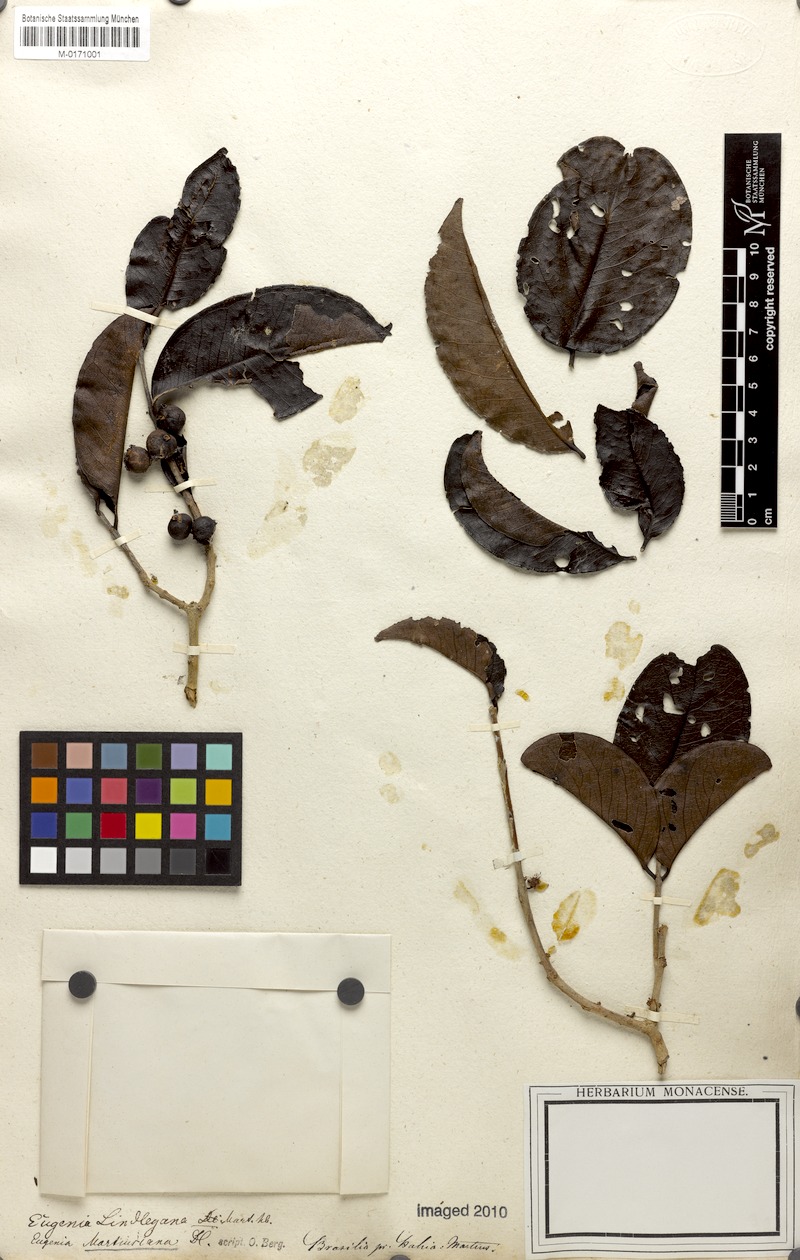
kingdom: Plantae
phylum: Tracheophyta
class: Magnoliopsida
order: Myrtales
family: Myrtaceae
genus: Eugenia
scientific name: Eugenia stictopetala
